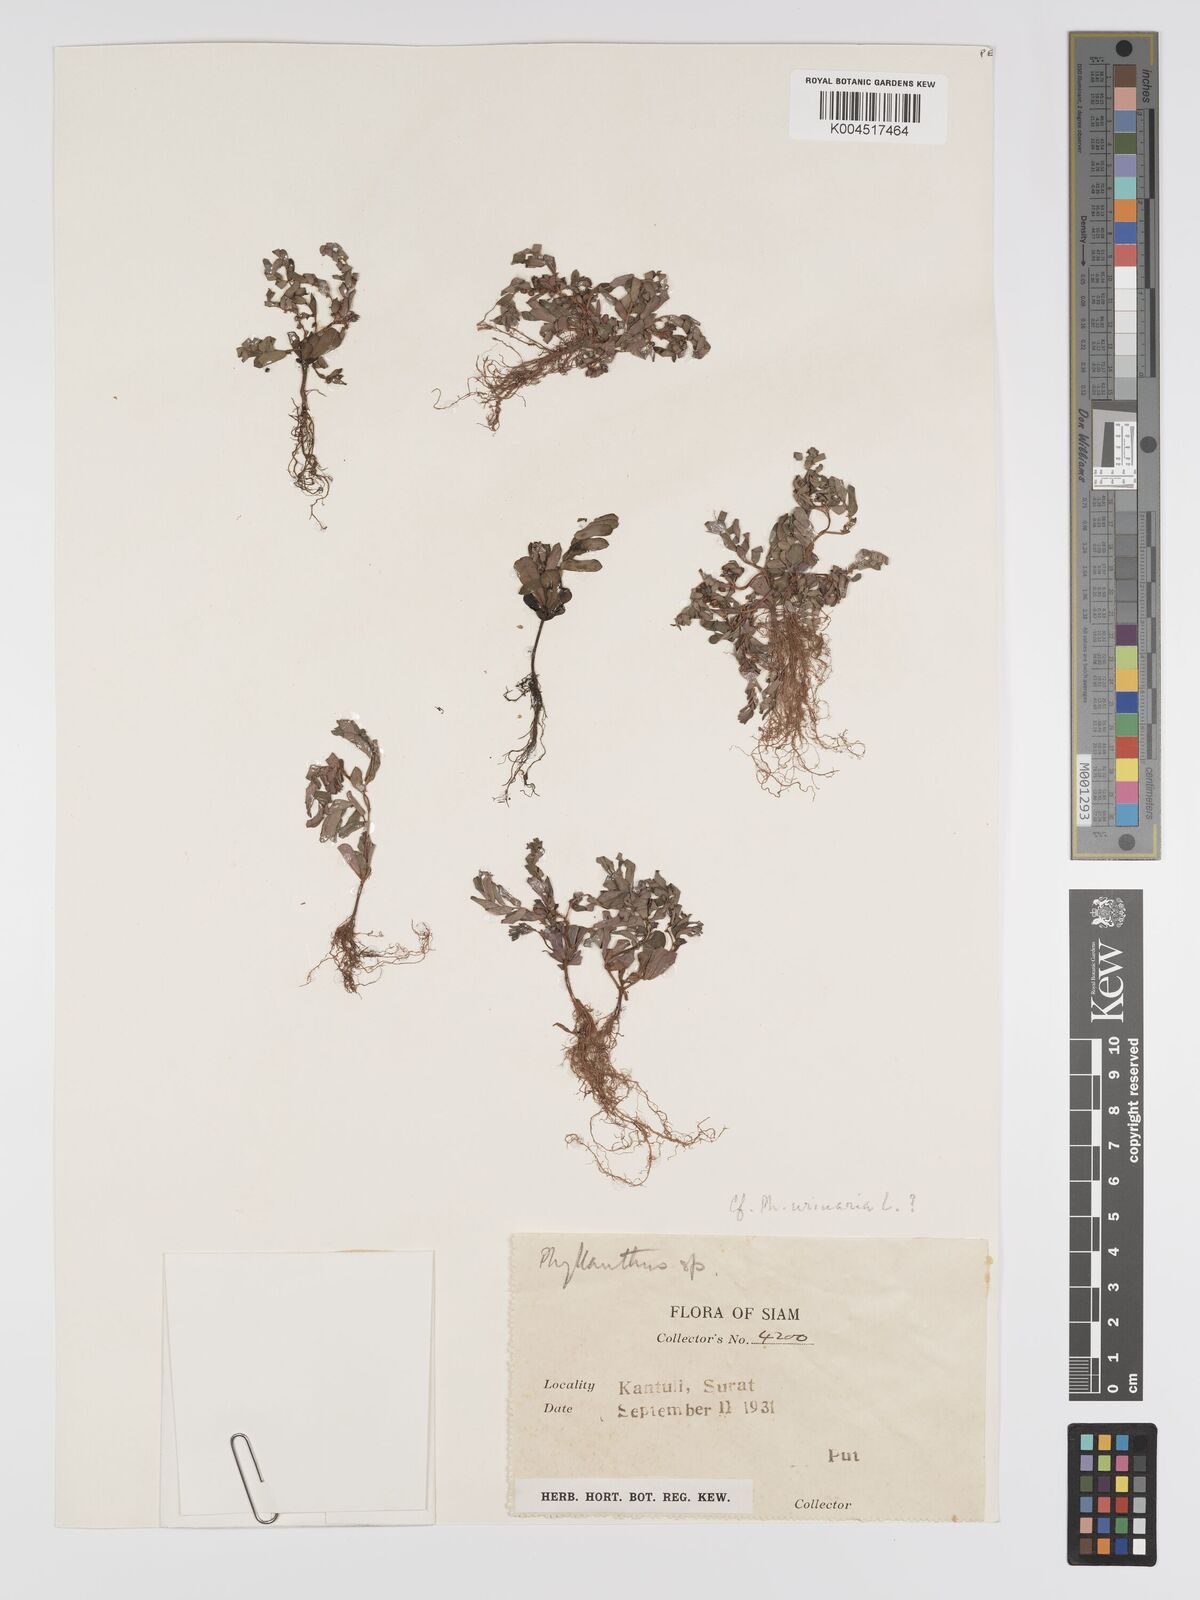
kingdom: Plantae
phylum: Tracheophyta
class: Magnoliopsida
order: Malpighiales
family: Phyllanthaceae
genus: Phyllanthus
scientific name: Phyllanthus urinaria
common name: Chamber bitter
